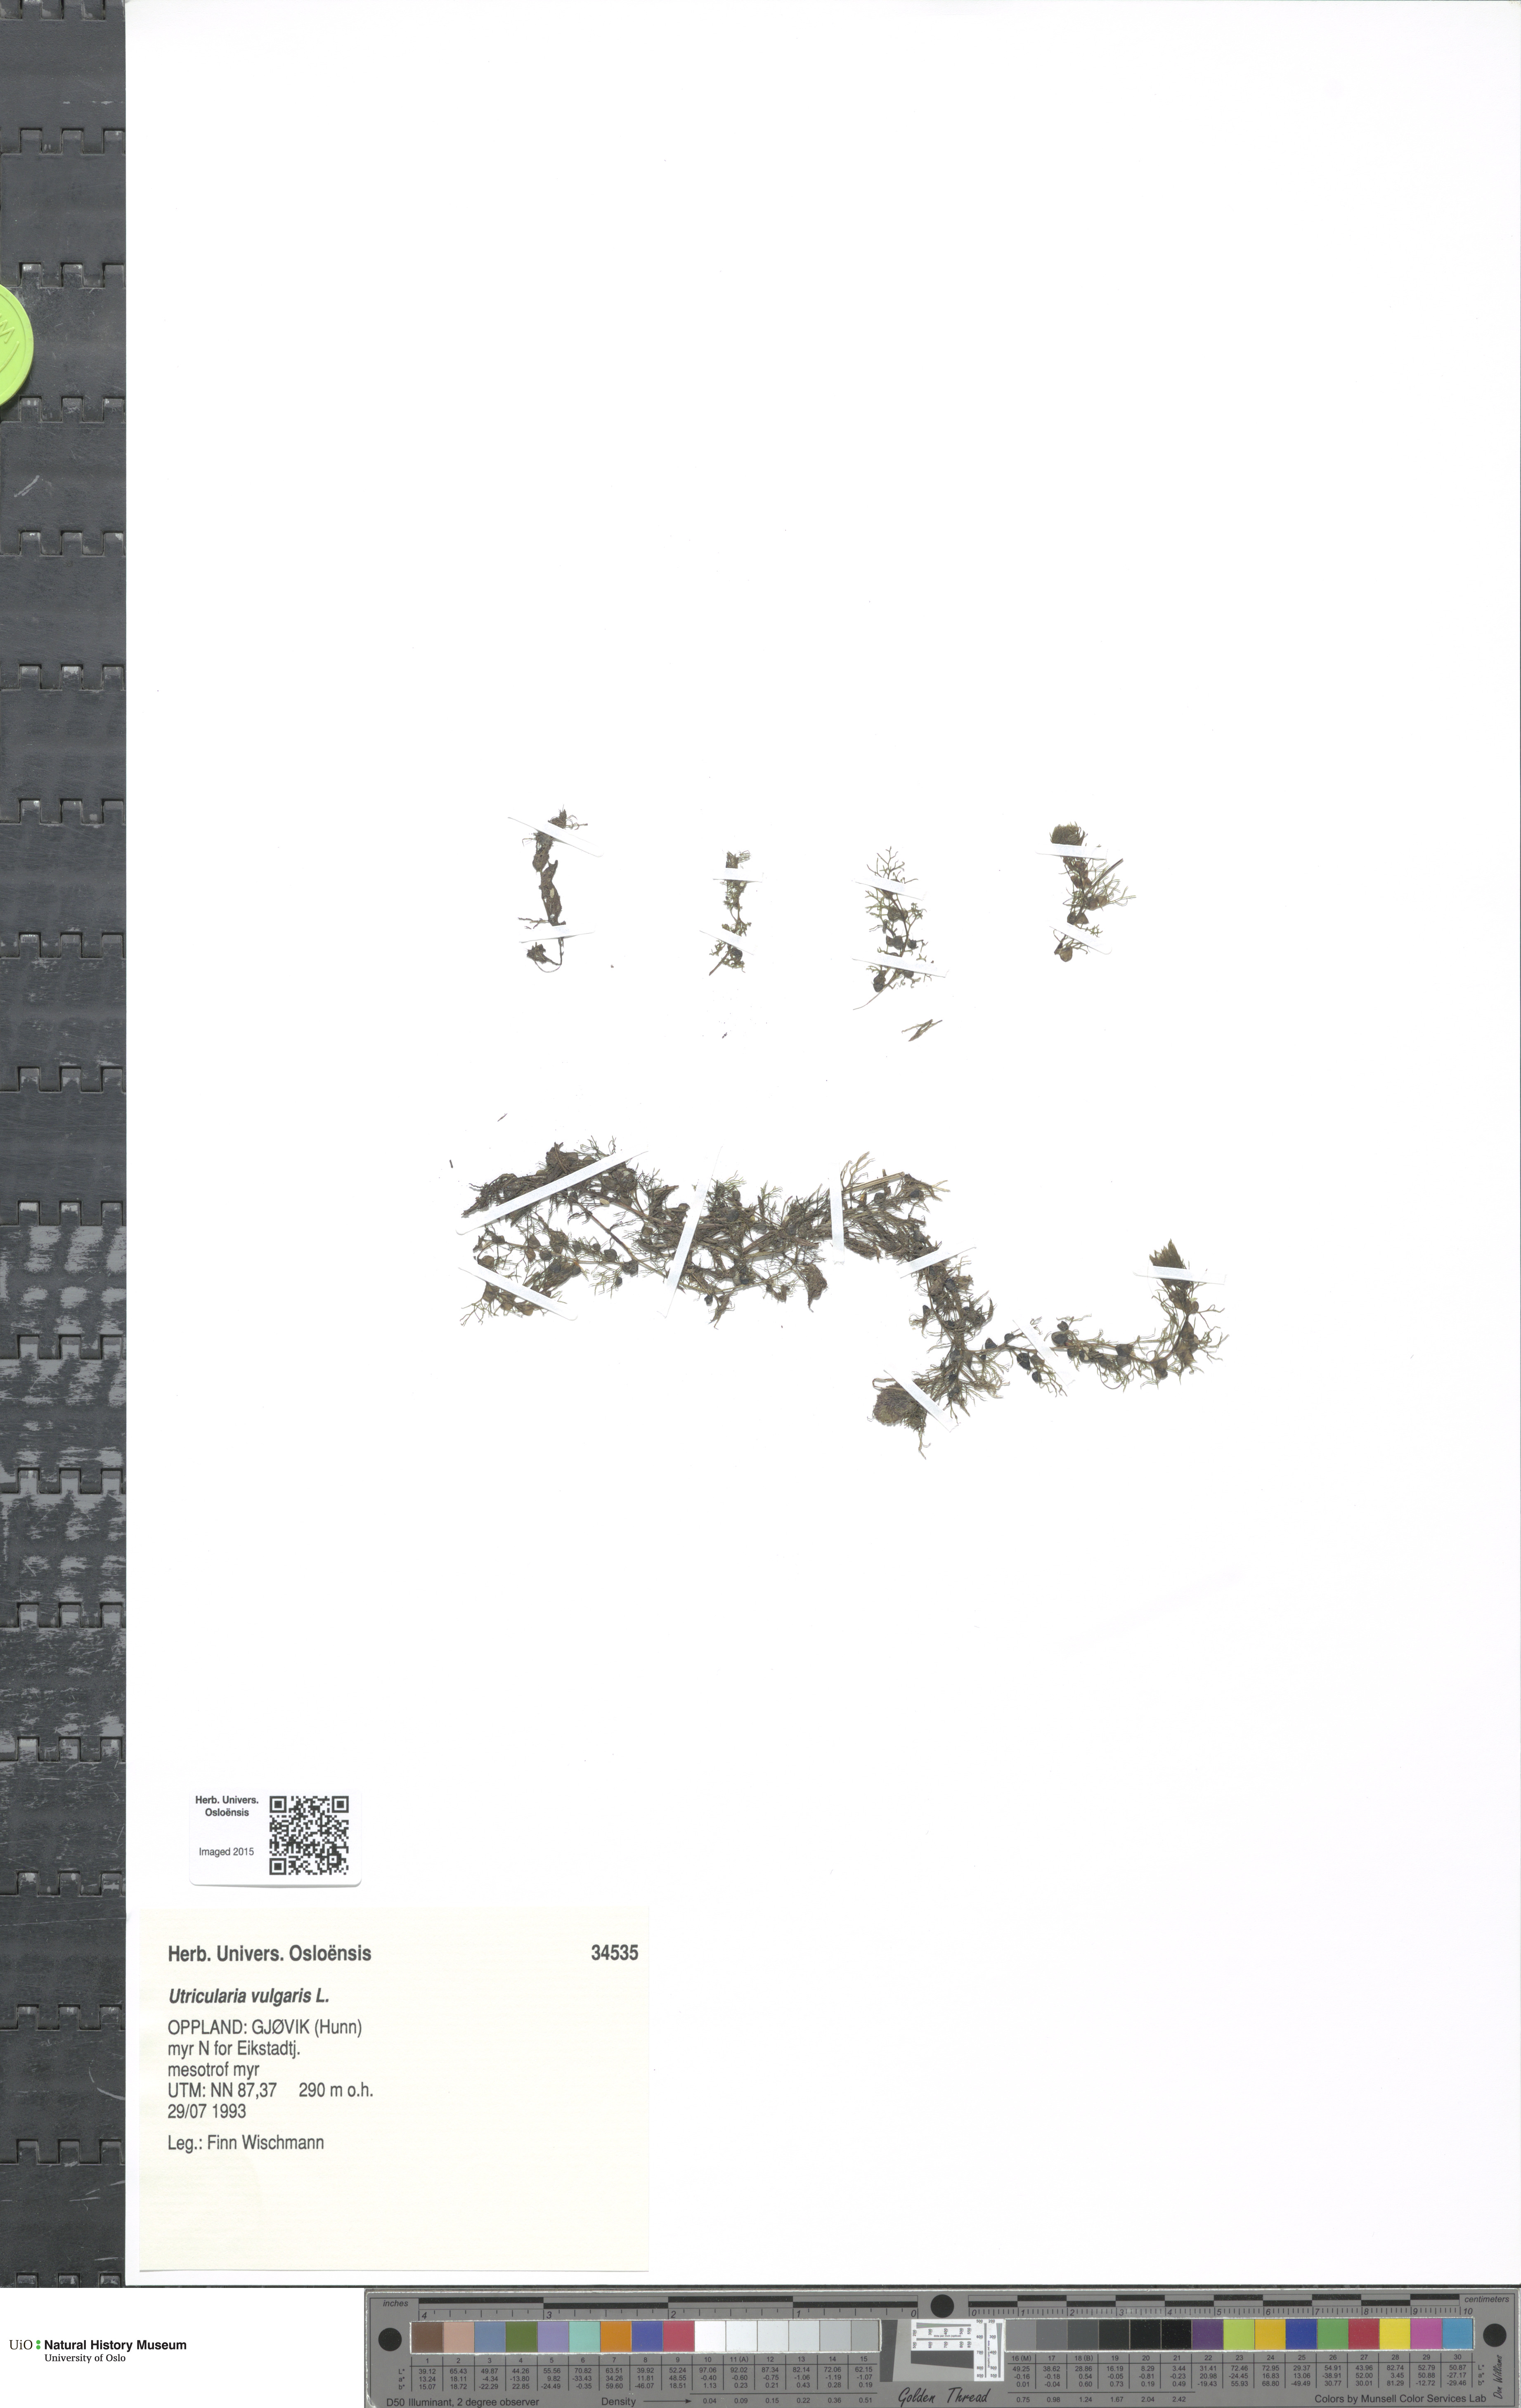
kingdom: Plantae
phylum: Tracheophyta
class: Magnoliopsida
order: Lamiales
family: Lentibulariaceae
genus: Utricularia
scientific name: Utricularia vulgaris
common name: Greater bladderwort
